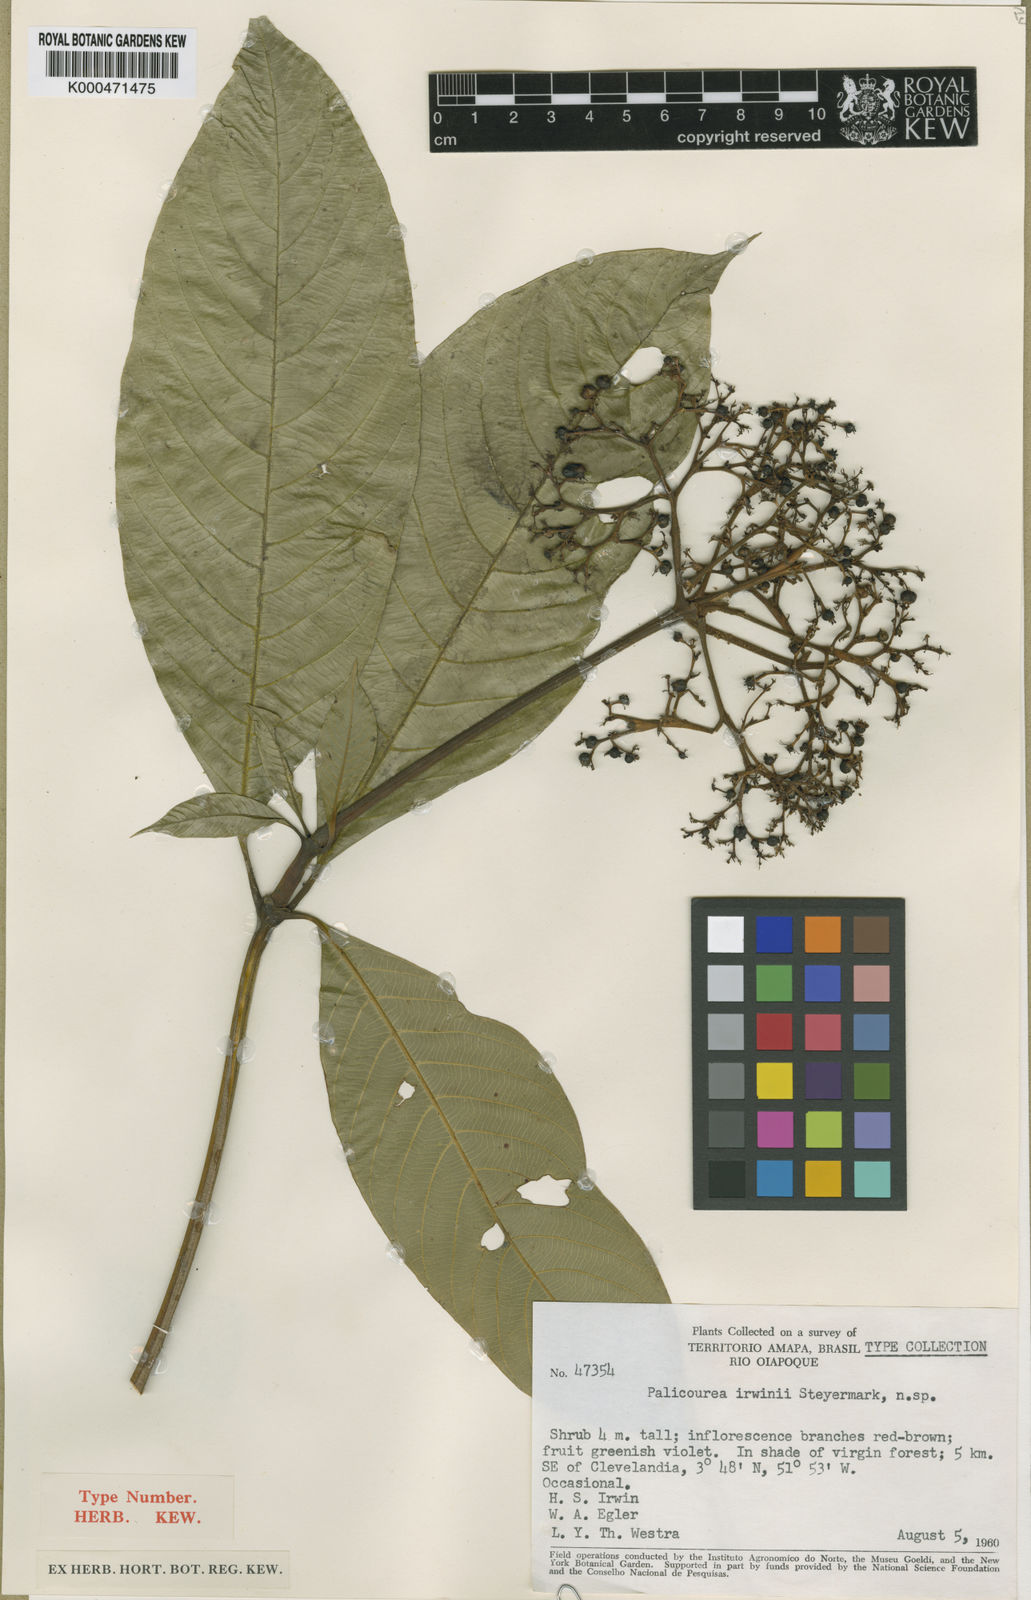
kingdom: Plantae
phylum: Tracheophyta
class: Magnoliopsida
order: Gentianales
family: Rubiaceae
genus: Palicourea
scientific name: Palicourea irwinii
